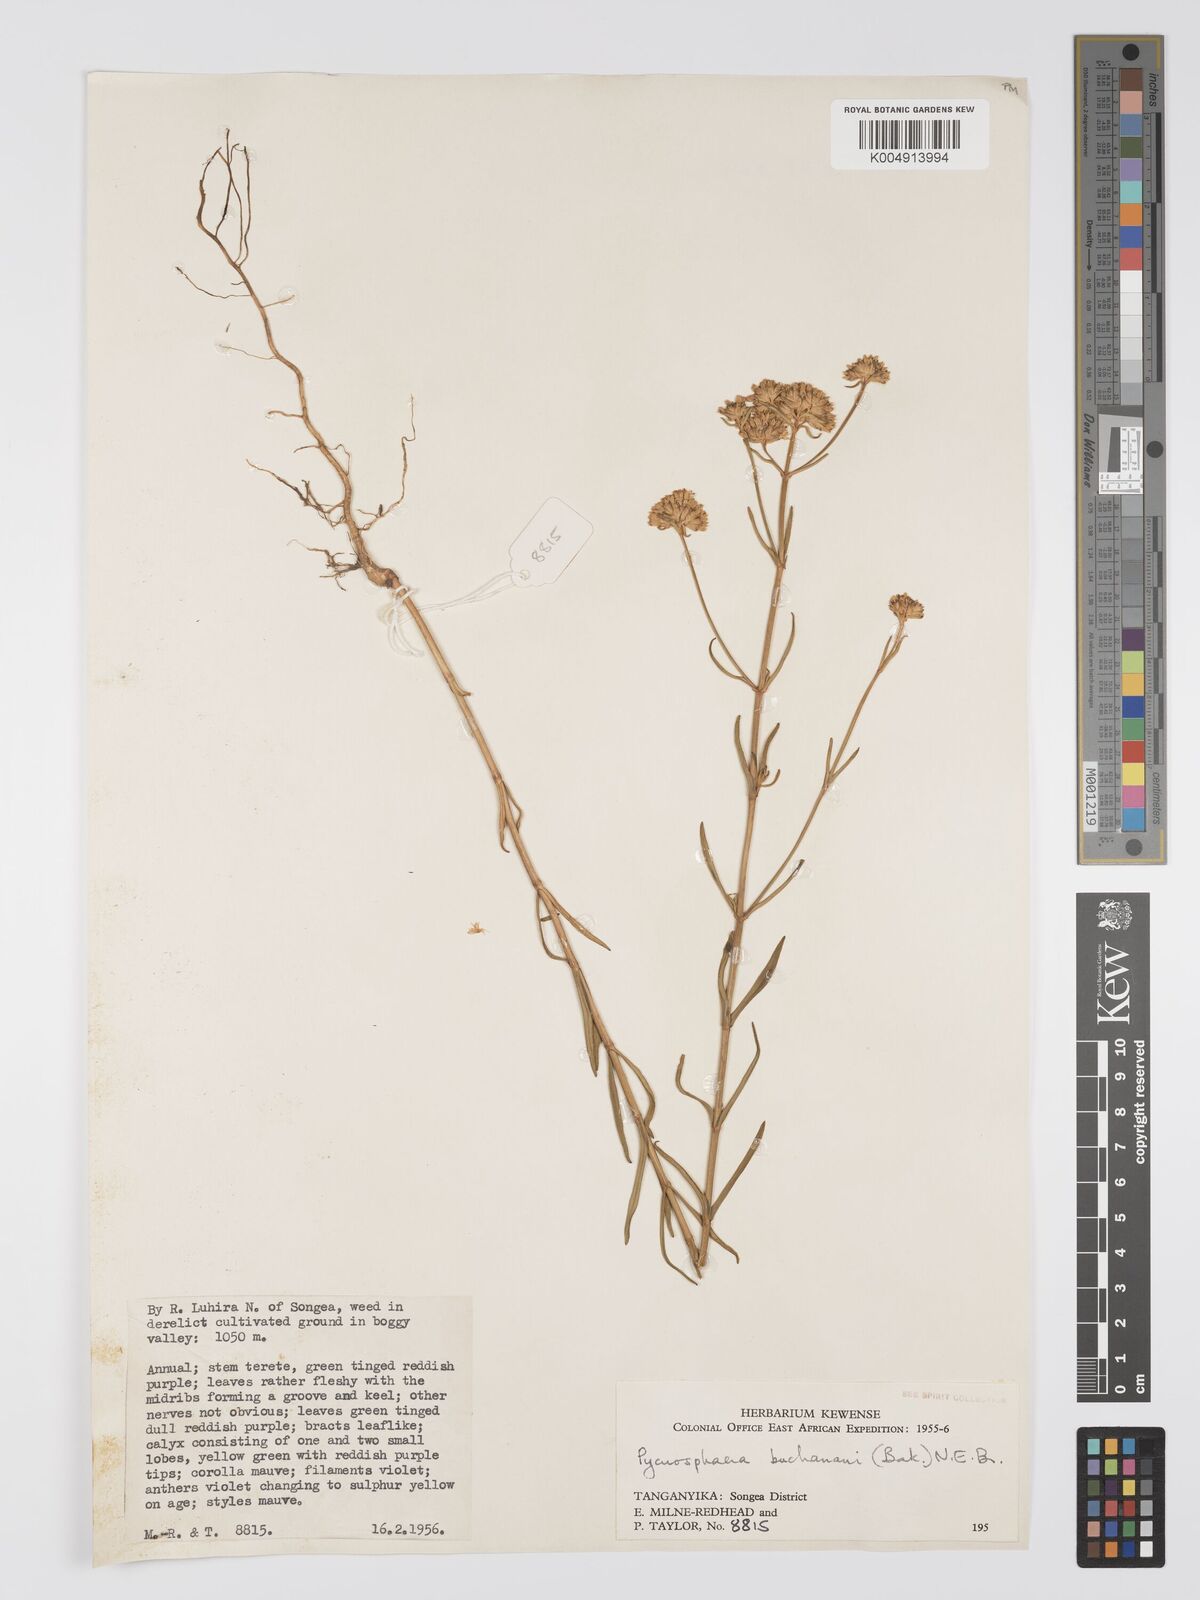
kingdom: Plantae
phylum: Tracheophyta
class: Magnoliopsida
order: Gentianales
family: Gentianaceae
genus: Pycnosphaera
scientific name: Pycnosphaera buchananii
